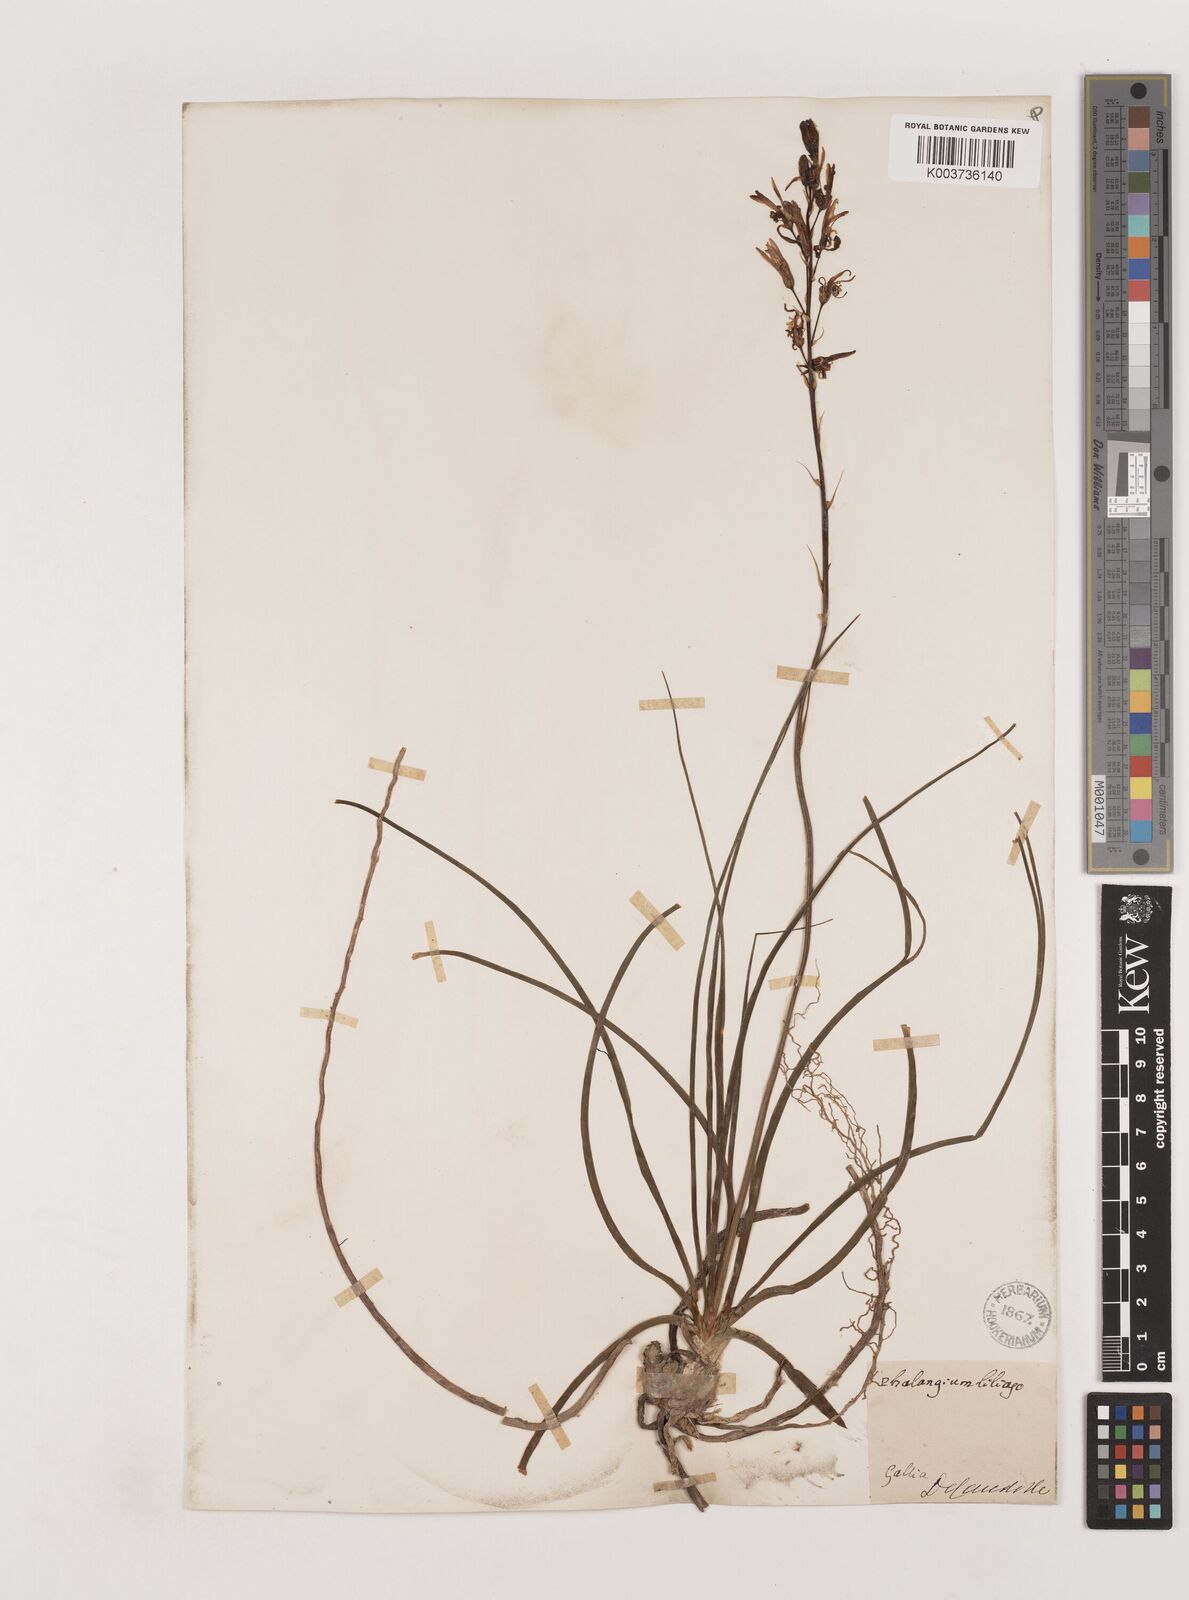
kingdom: Plantae
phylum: Tracheophyta
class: Liliopsida
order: Asparagales
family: Asparagaceae
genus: Anthericum
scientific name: Anthericum liliago
